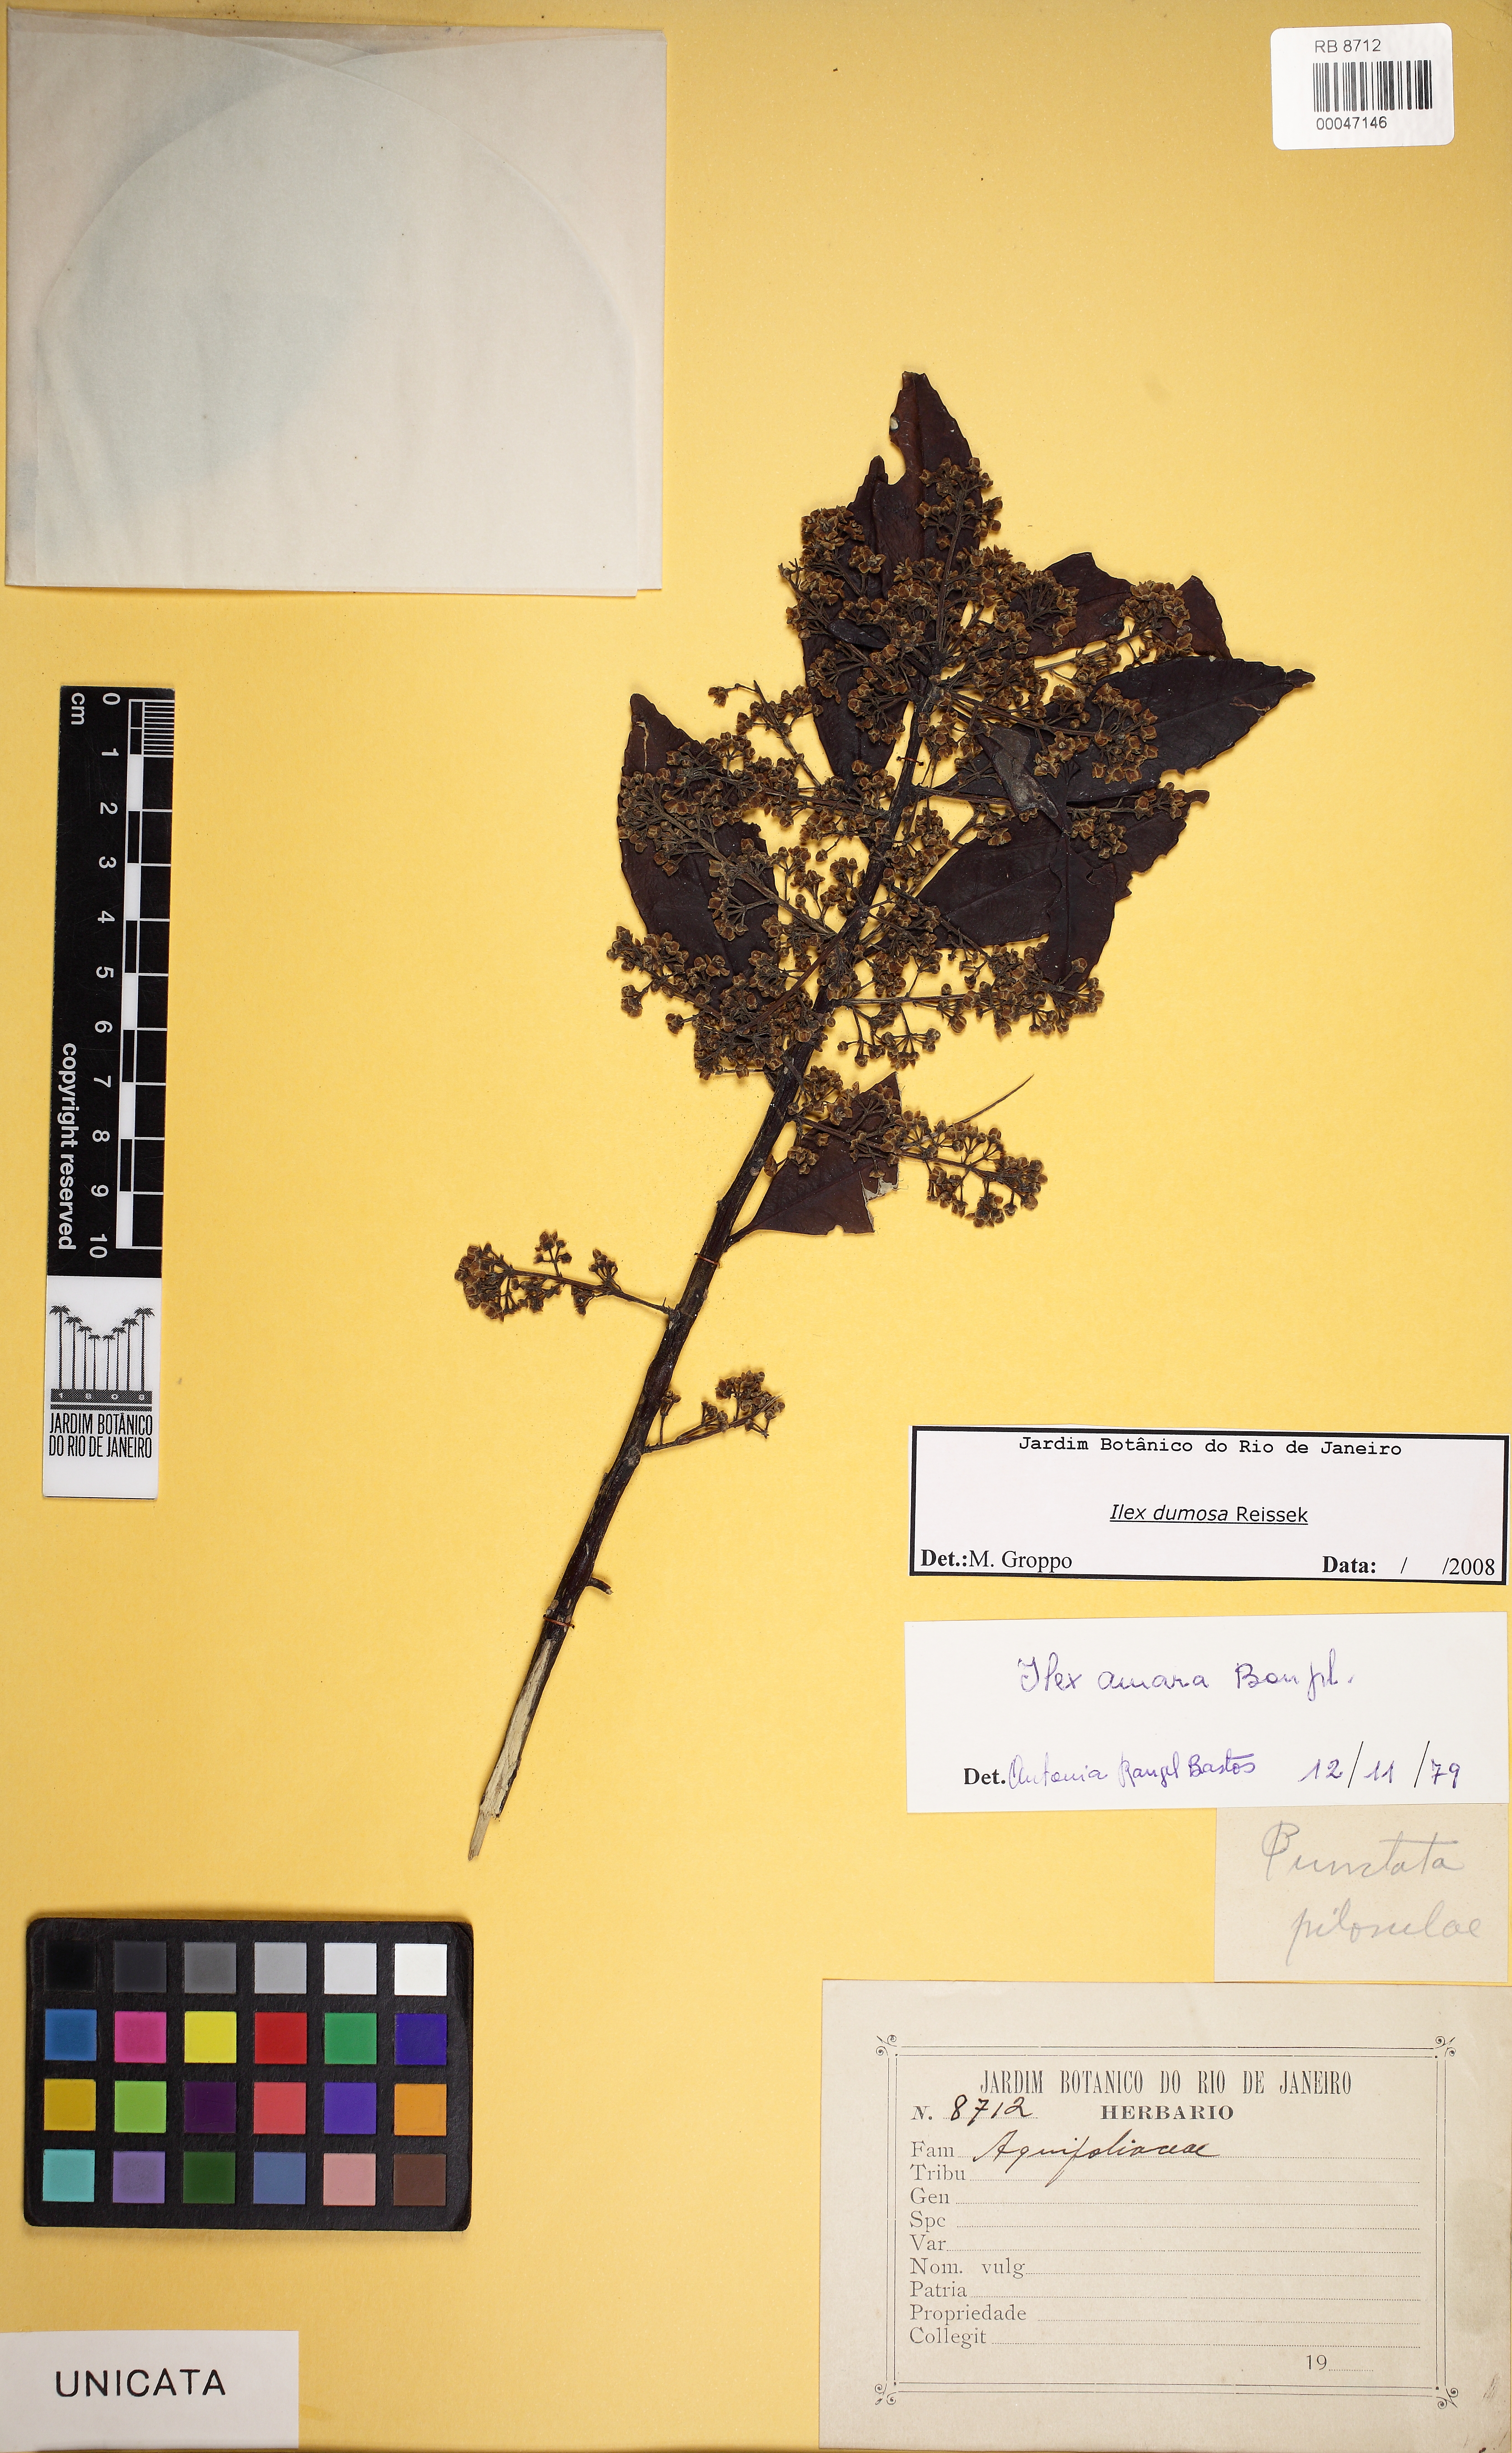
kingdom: Plantae
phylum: Tracheophyta
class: Magnoliopsida
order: Aquifoliales
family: Aquifoliaceae
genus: Ilex
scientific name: Ilex dumosa
